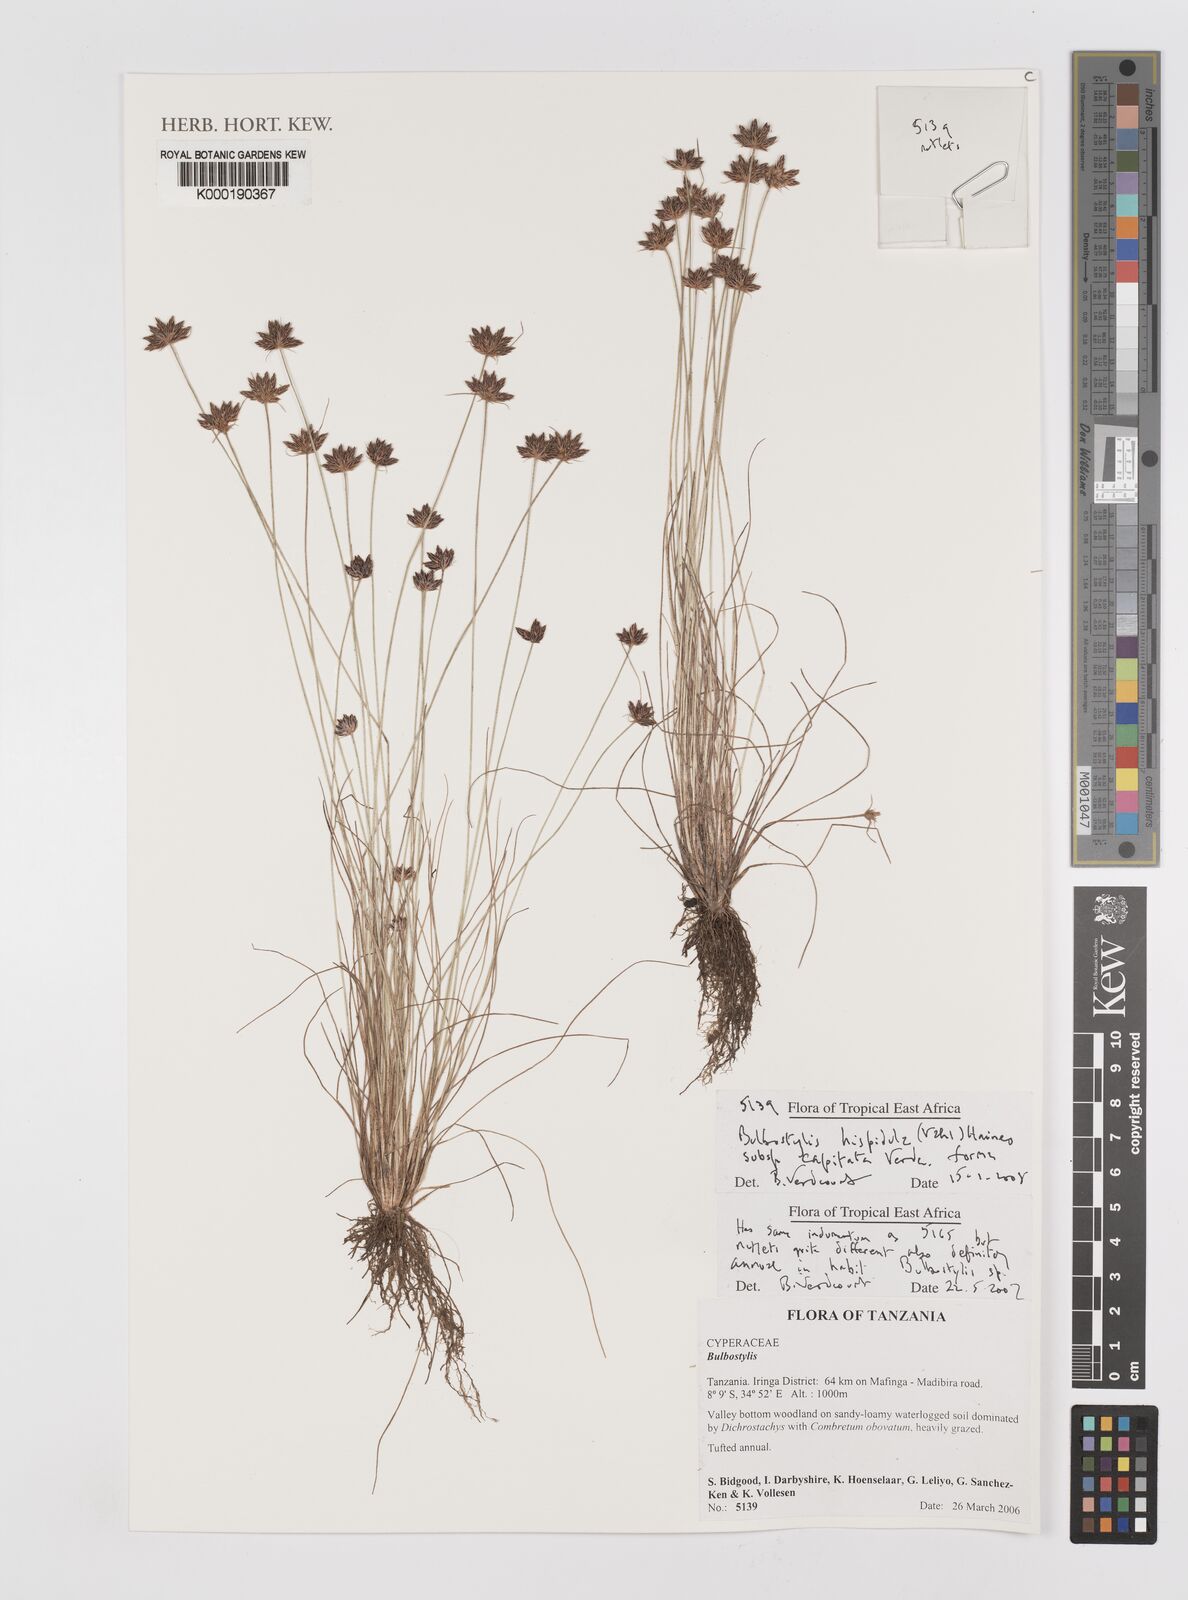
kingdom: Plantae
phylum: Tracheophyta
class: Liliopsida
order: Poales
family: Cyperaceae
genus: Bulbostylis
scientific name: Bulbostylis
